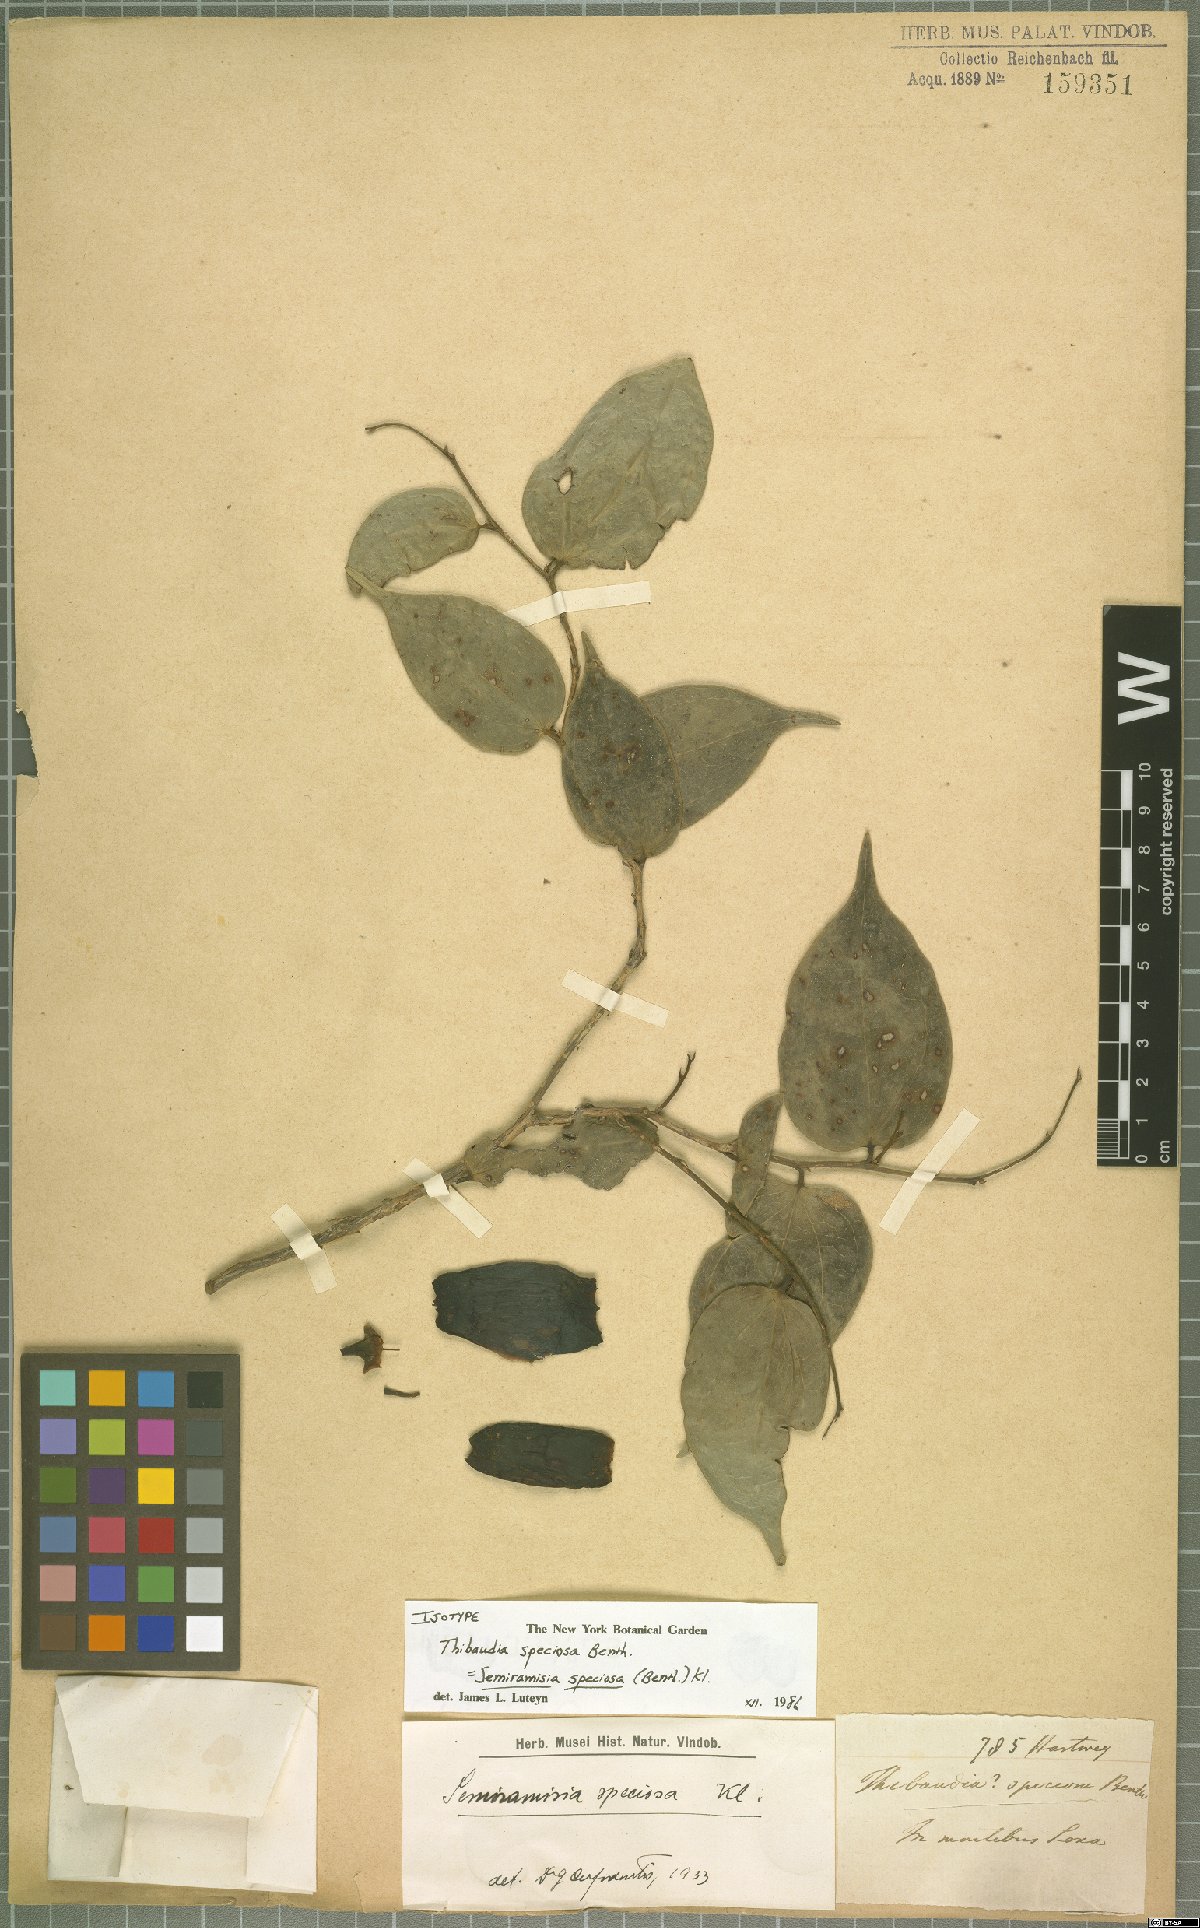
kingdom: Plantae
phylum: Tracheophyta
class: Magnoliopsida
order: Ericales
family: Ericaceae
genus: Semiramisia
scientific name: Semiramisia speciosa
